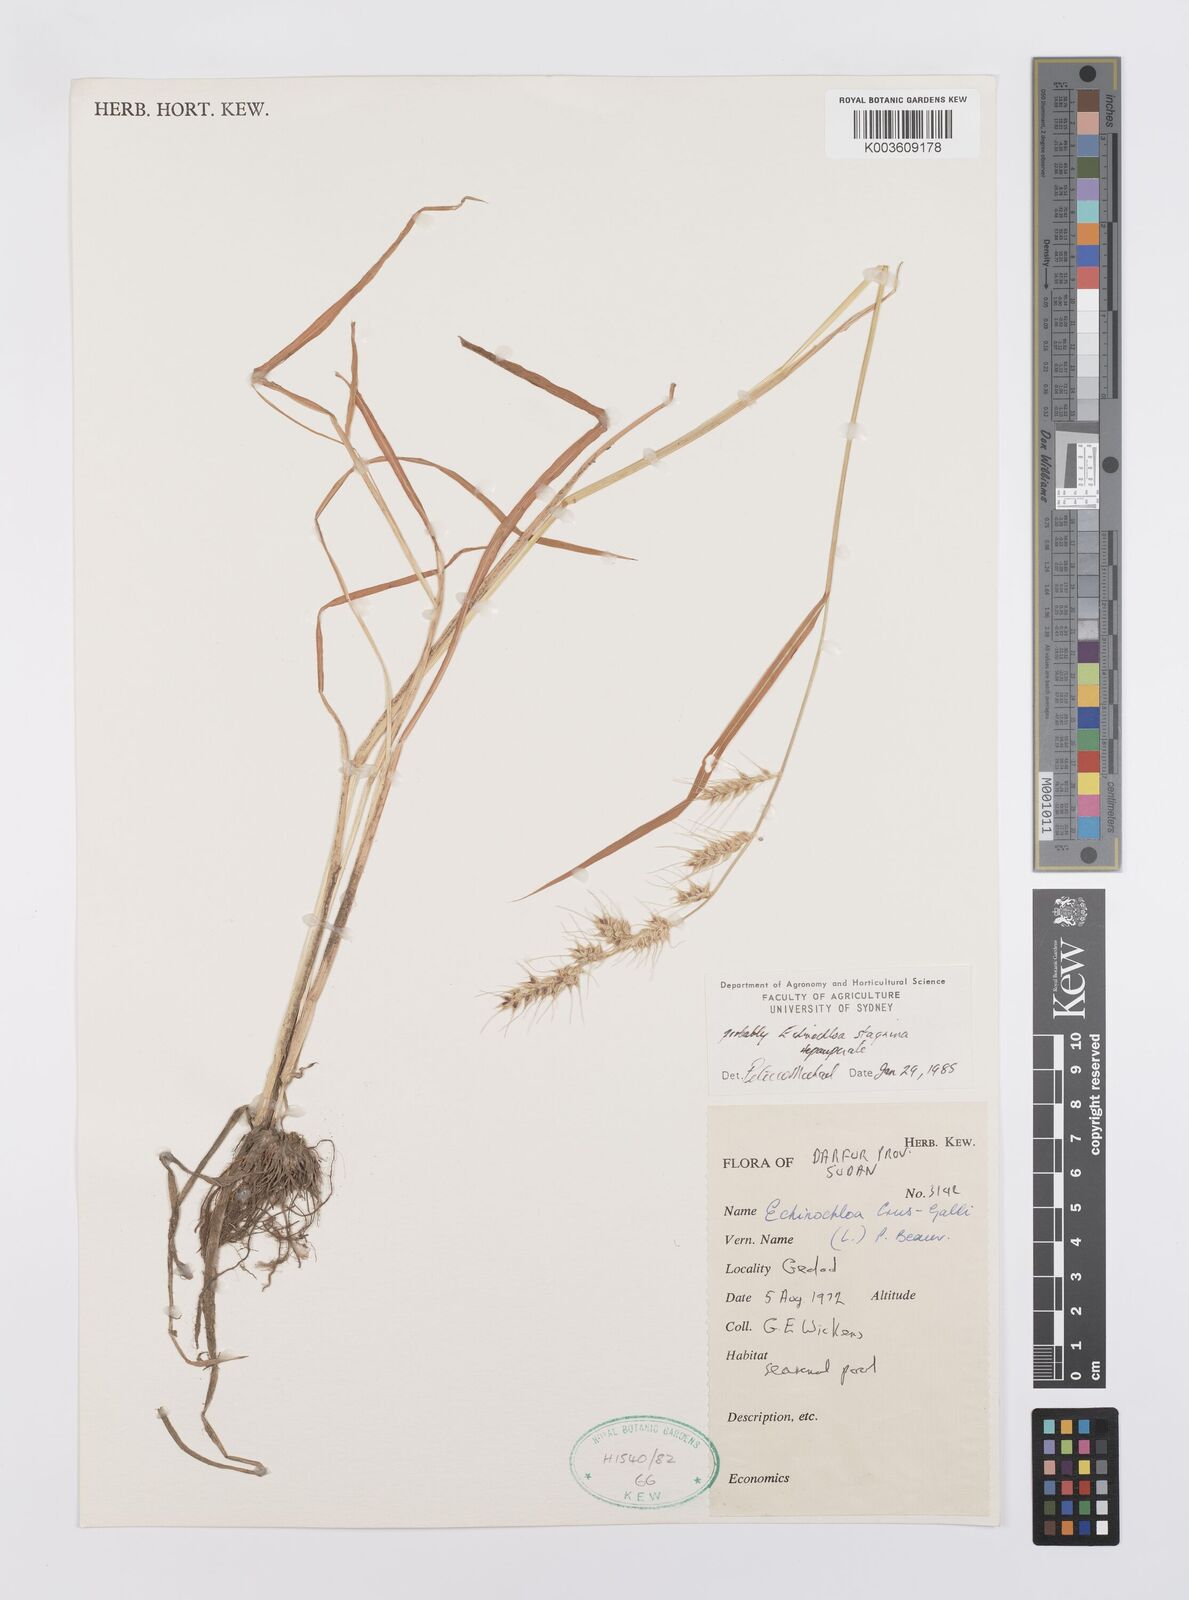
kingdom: Plantae
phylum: Tracheophyta
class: Liliopsida
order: Poales
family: Poaceae
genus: Echinochloa
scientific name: Echinochloa stagnina
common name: Burgu grass
